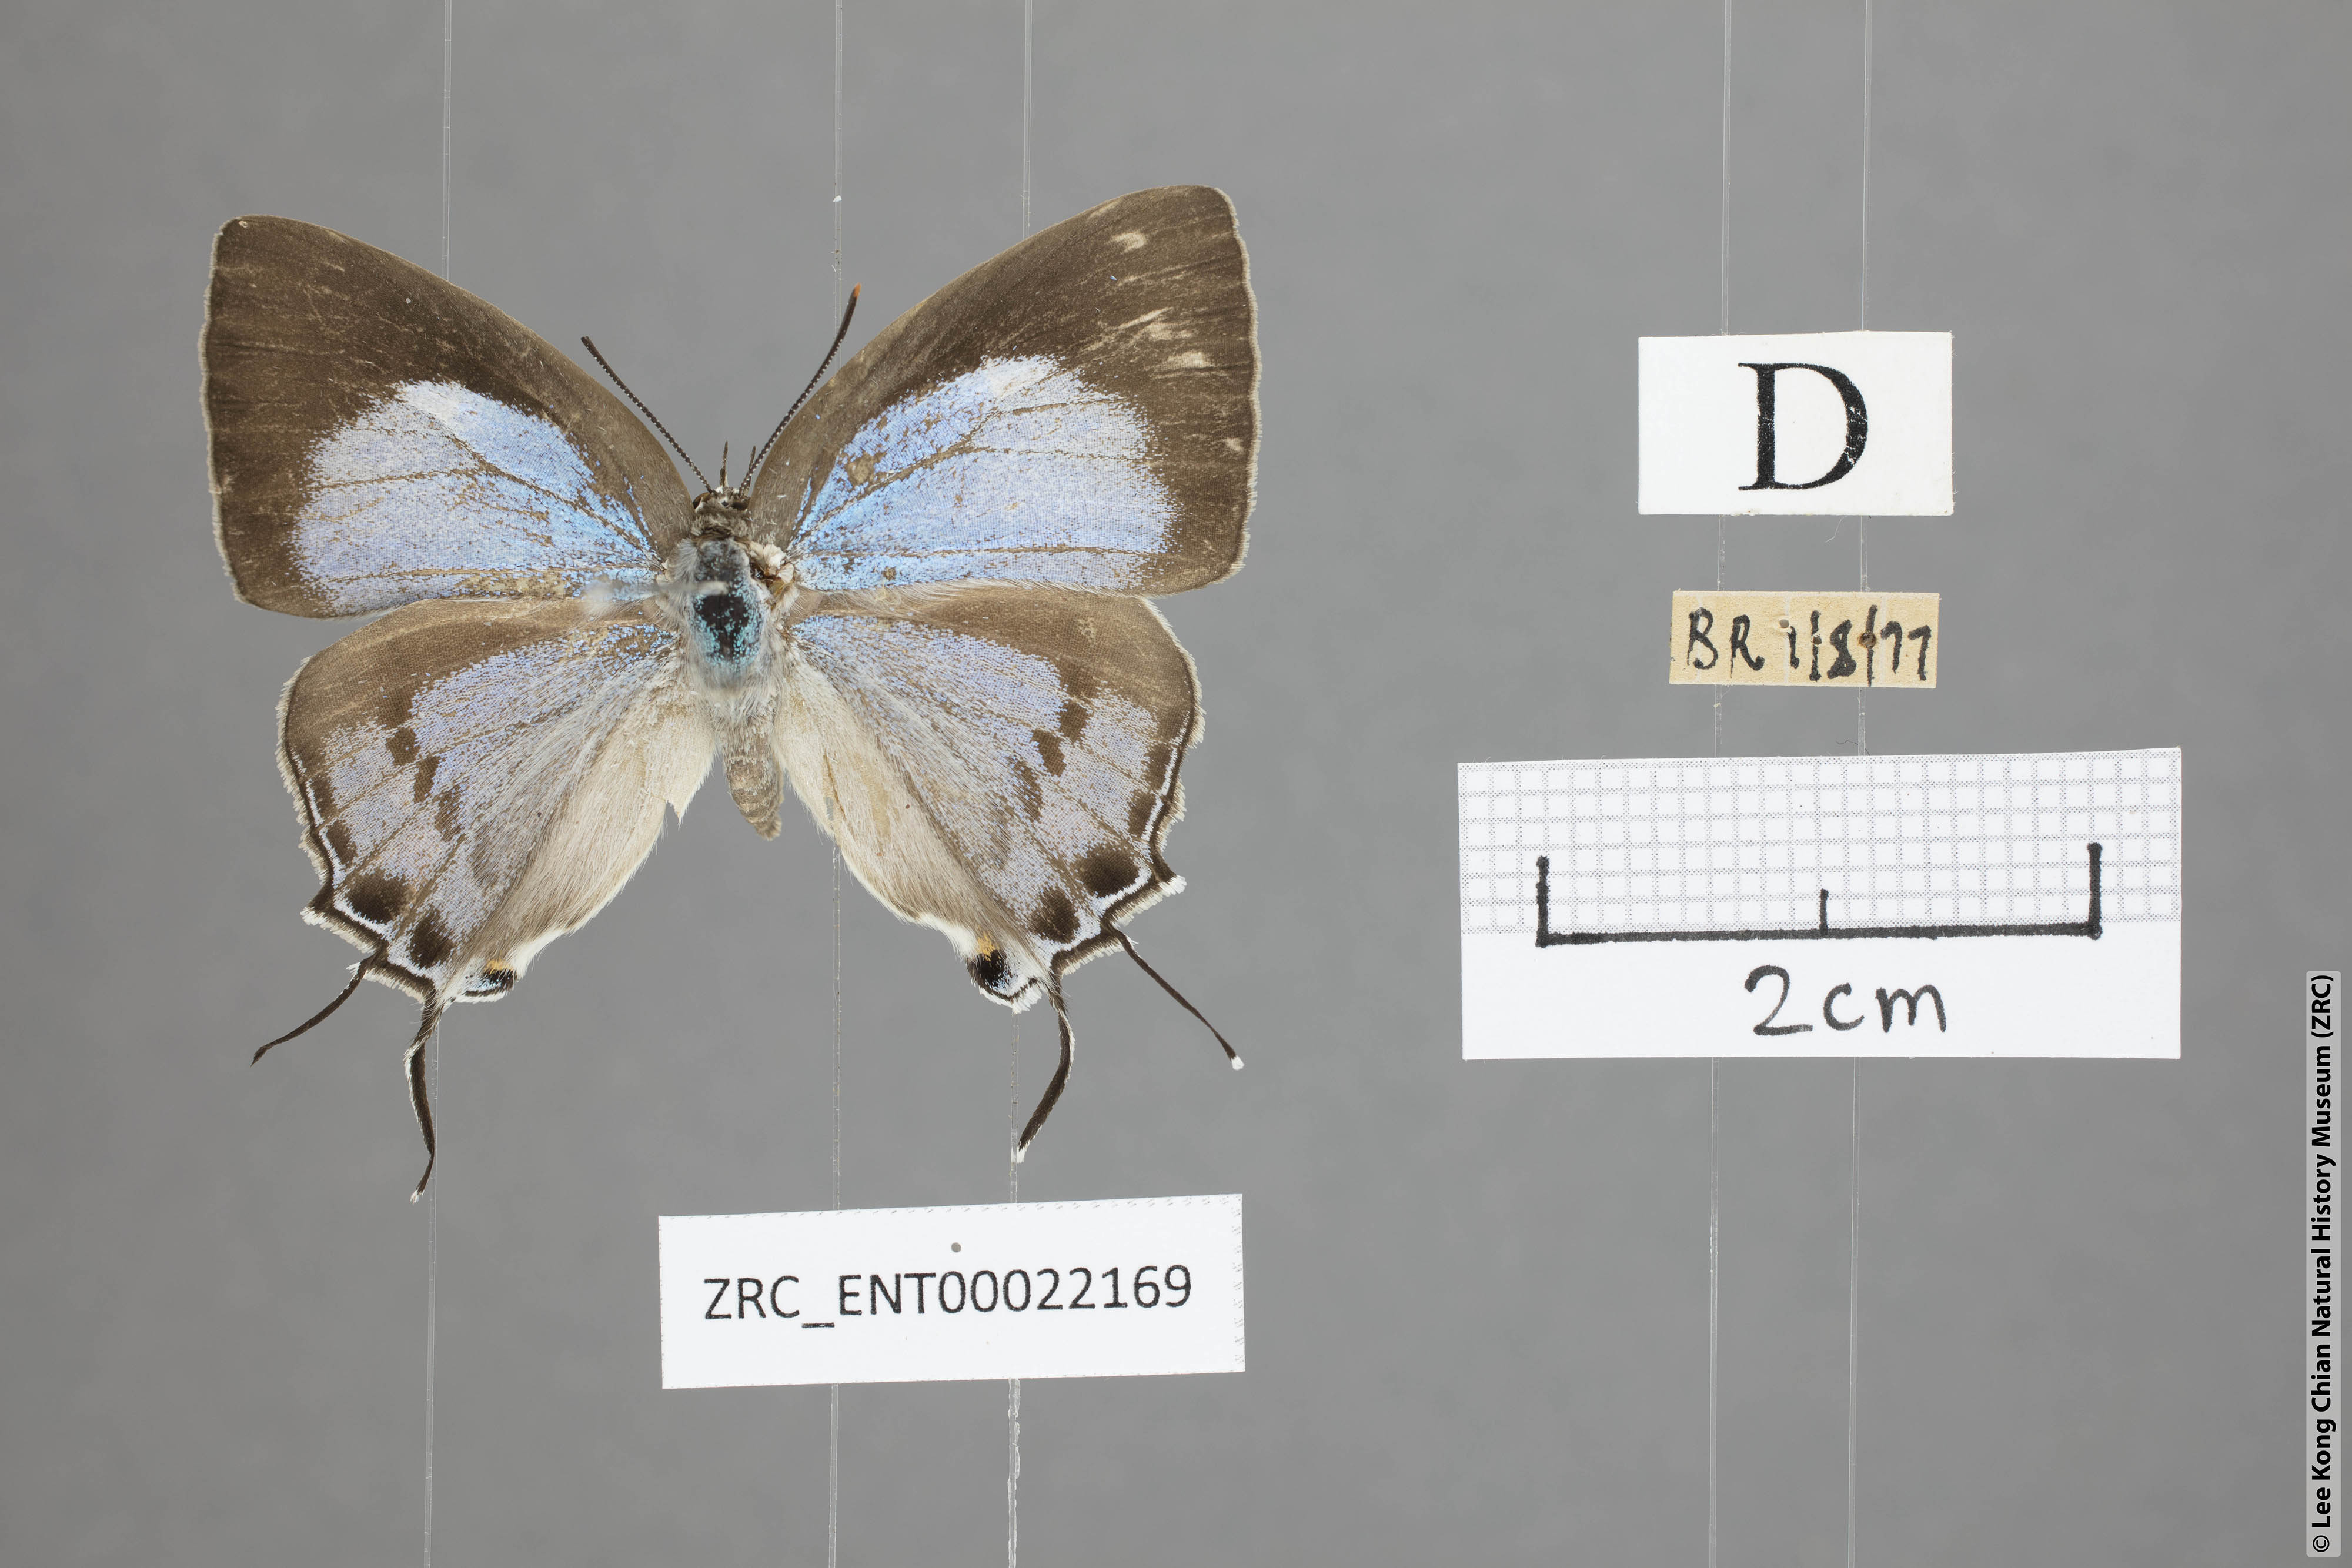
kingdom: Animalia
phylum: Arthropoda
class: Insecta
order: Lepidoptera
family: Lycaenidae
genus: Tajuria
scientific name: Tajuria cippus
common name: Peacock royal
